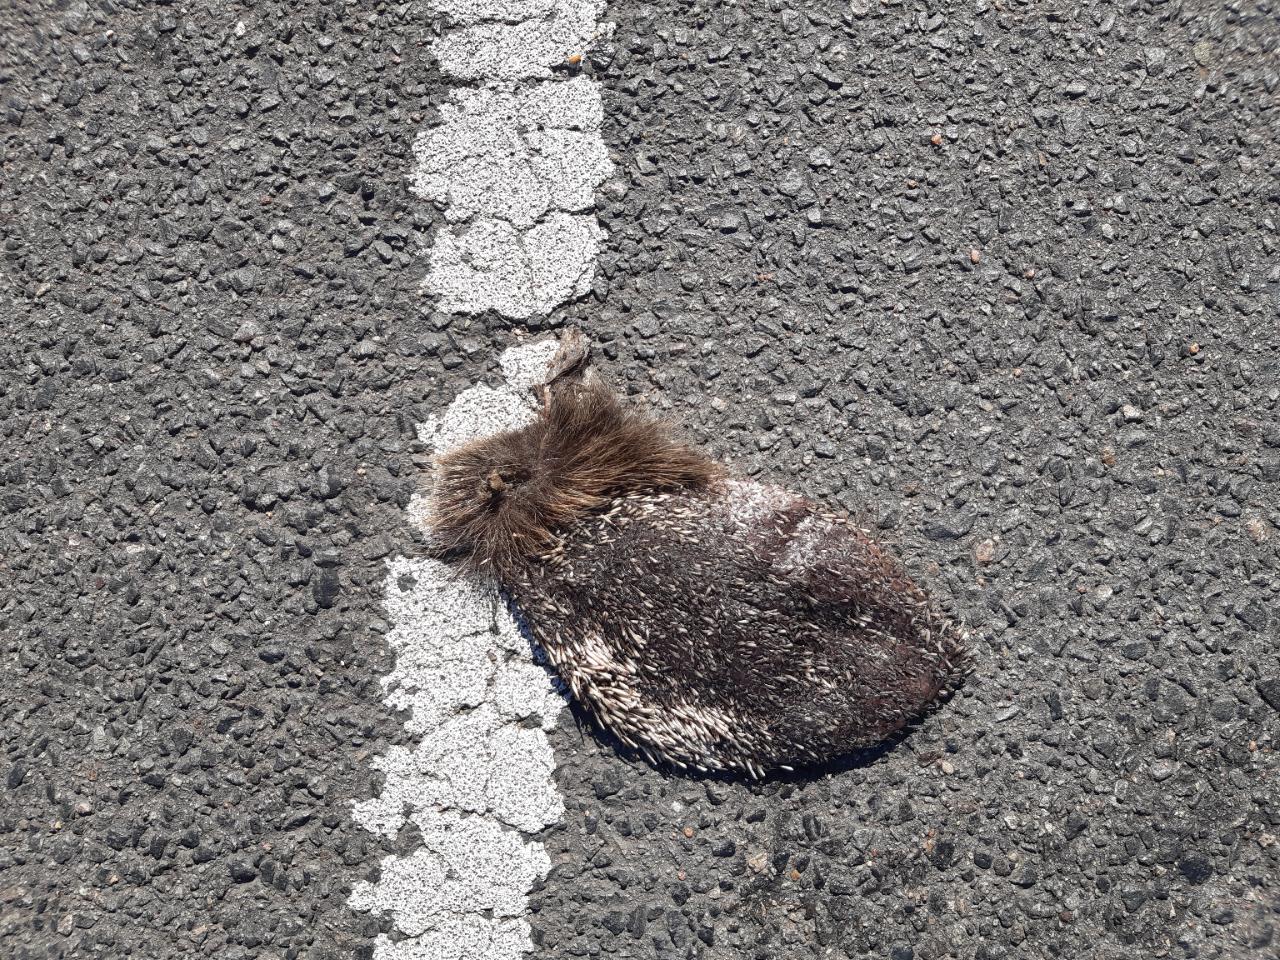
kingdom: Animalia
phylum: Chordata
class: Mammalia
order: Erinaceomorpha
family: Erinaceidae
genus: Erinaceus
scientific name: Erinaceus
